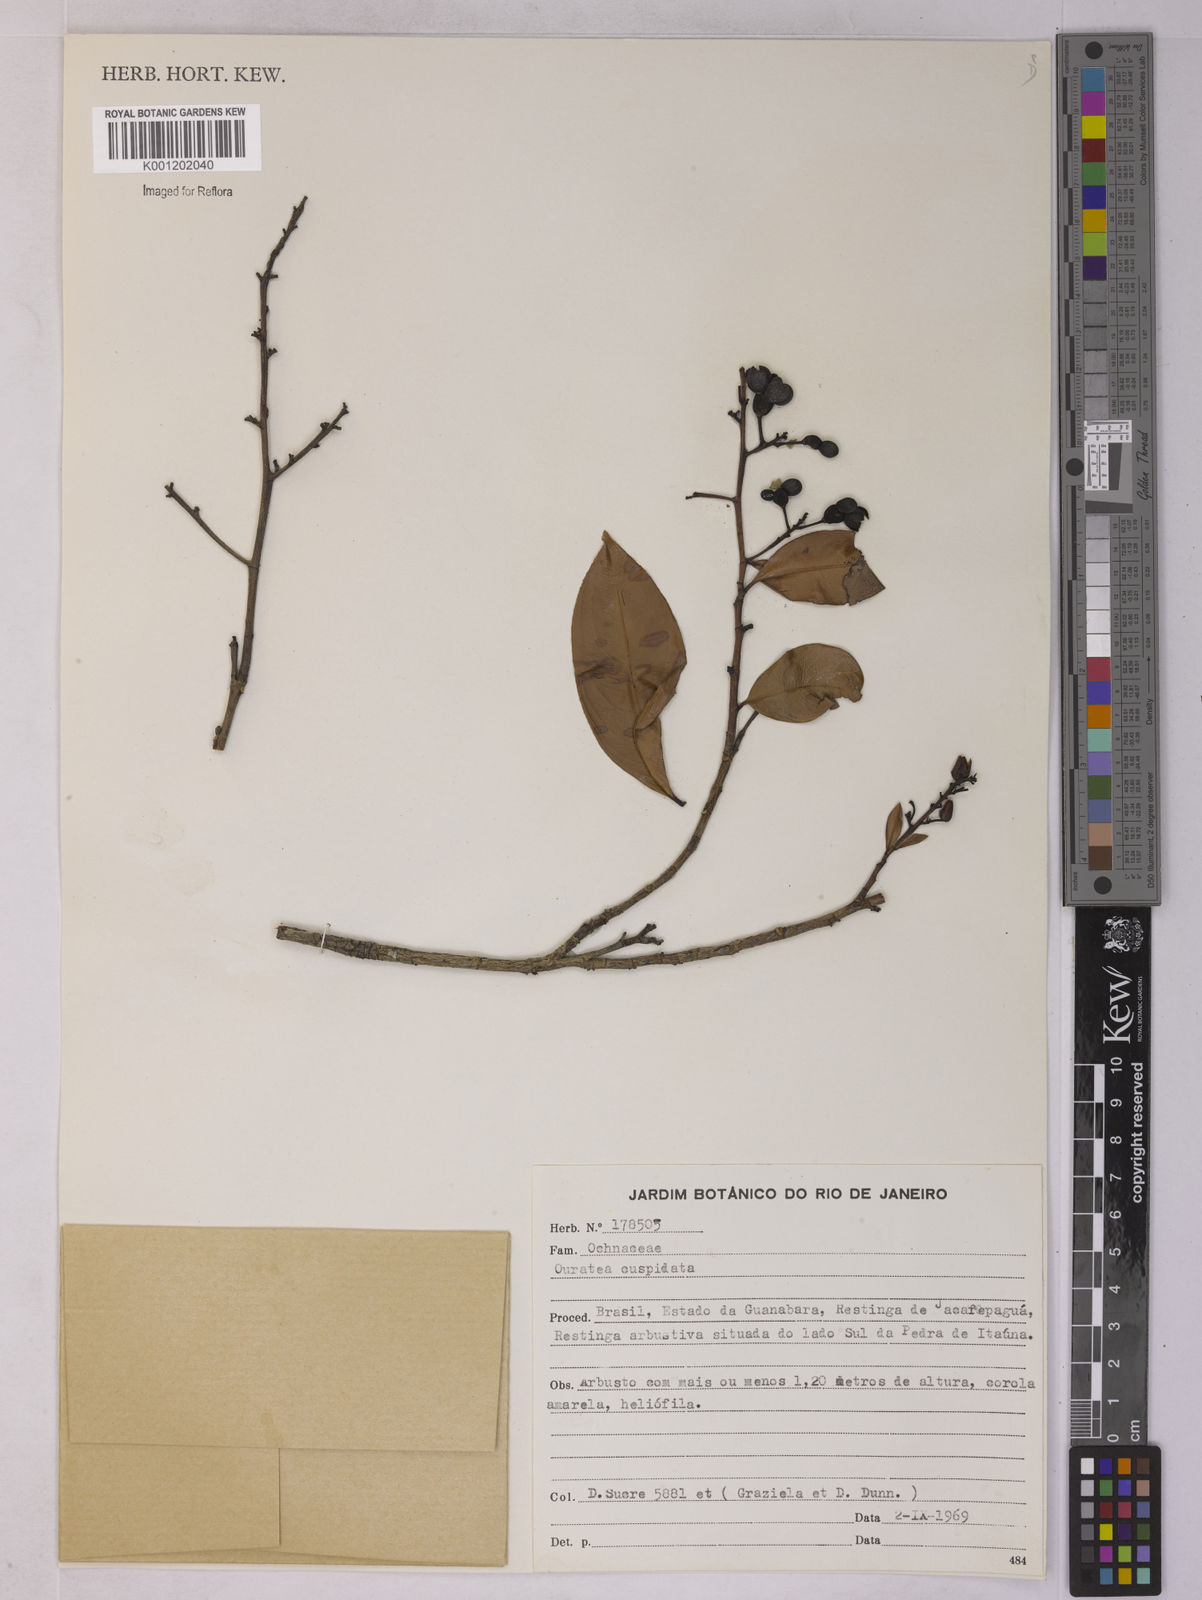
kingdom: Plantae
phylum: Tracheophyta
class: Magnoliopsida
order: Malpighiales
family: Ochnaceae
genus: Ouratea
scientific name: Ouratea cuspidata
